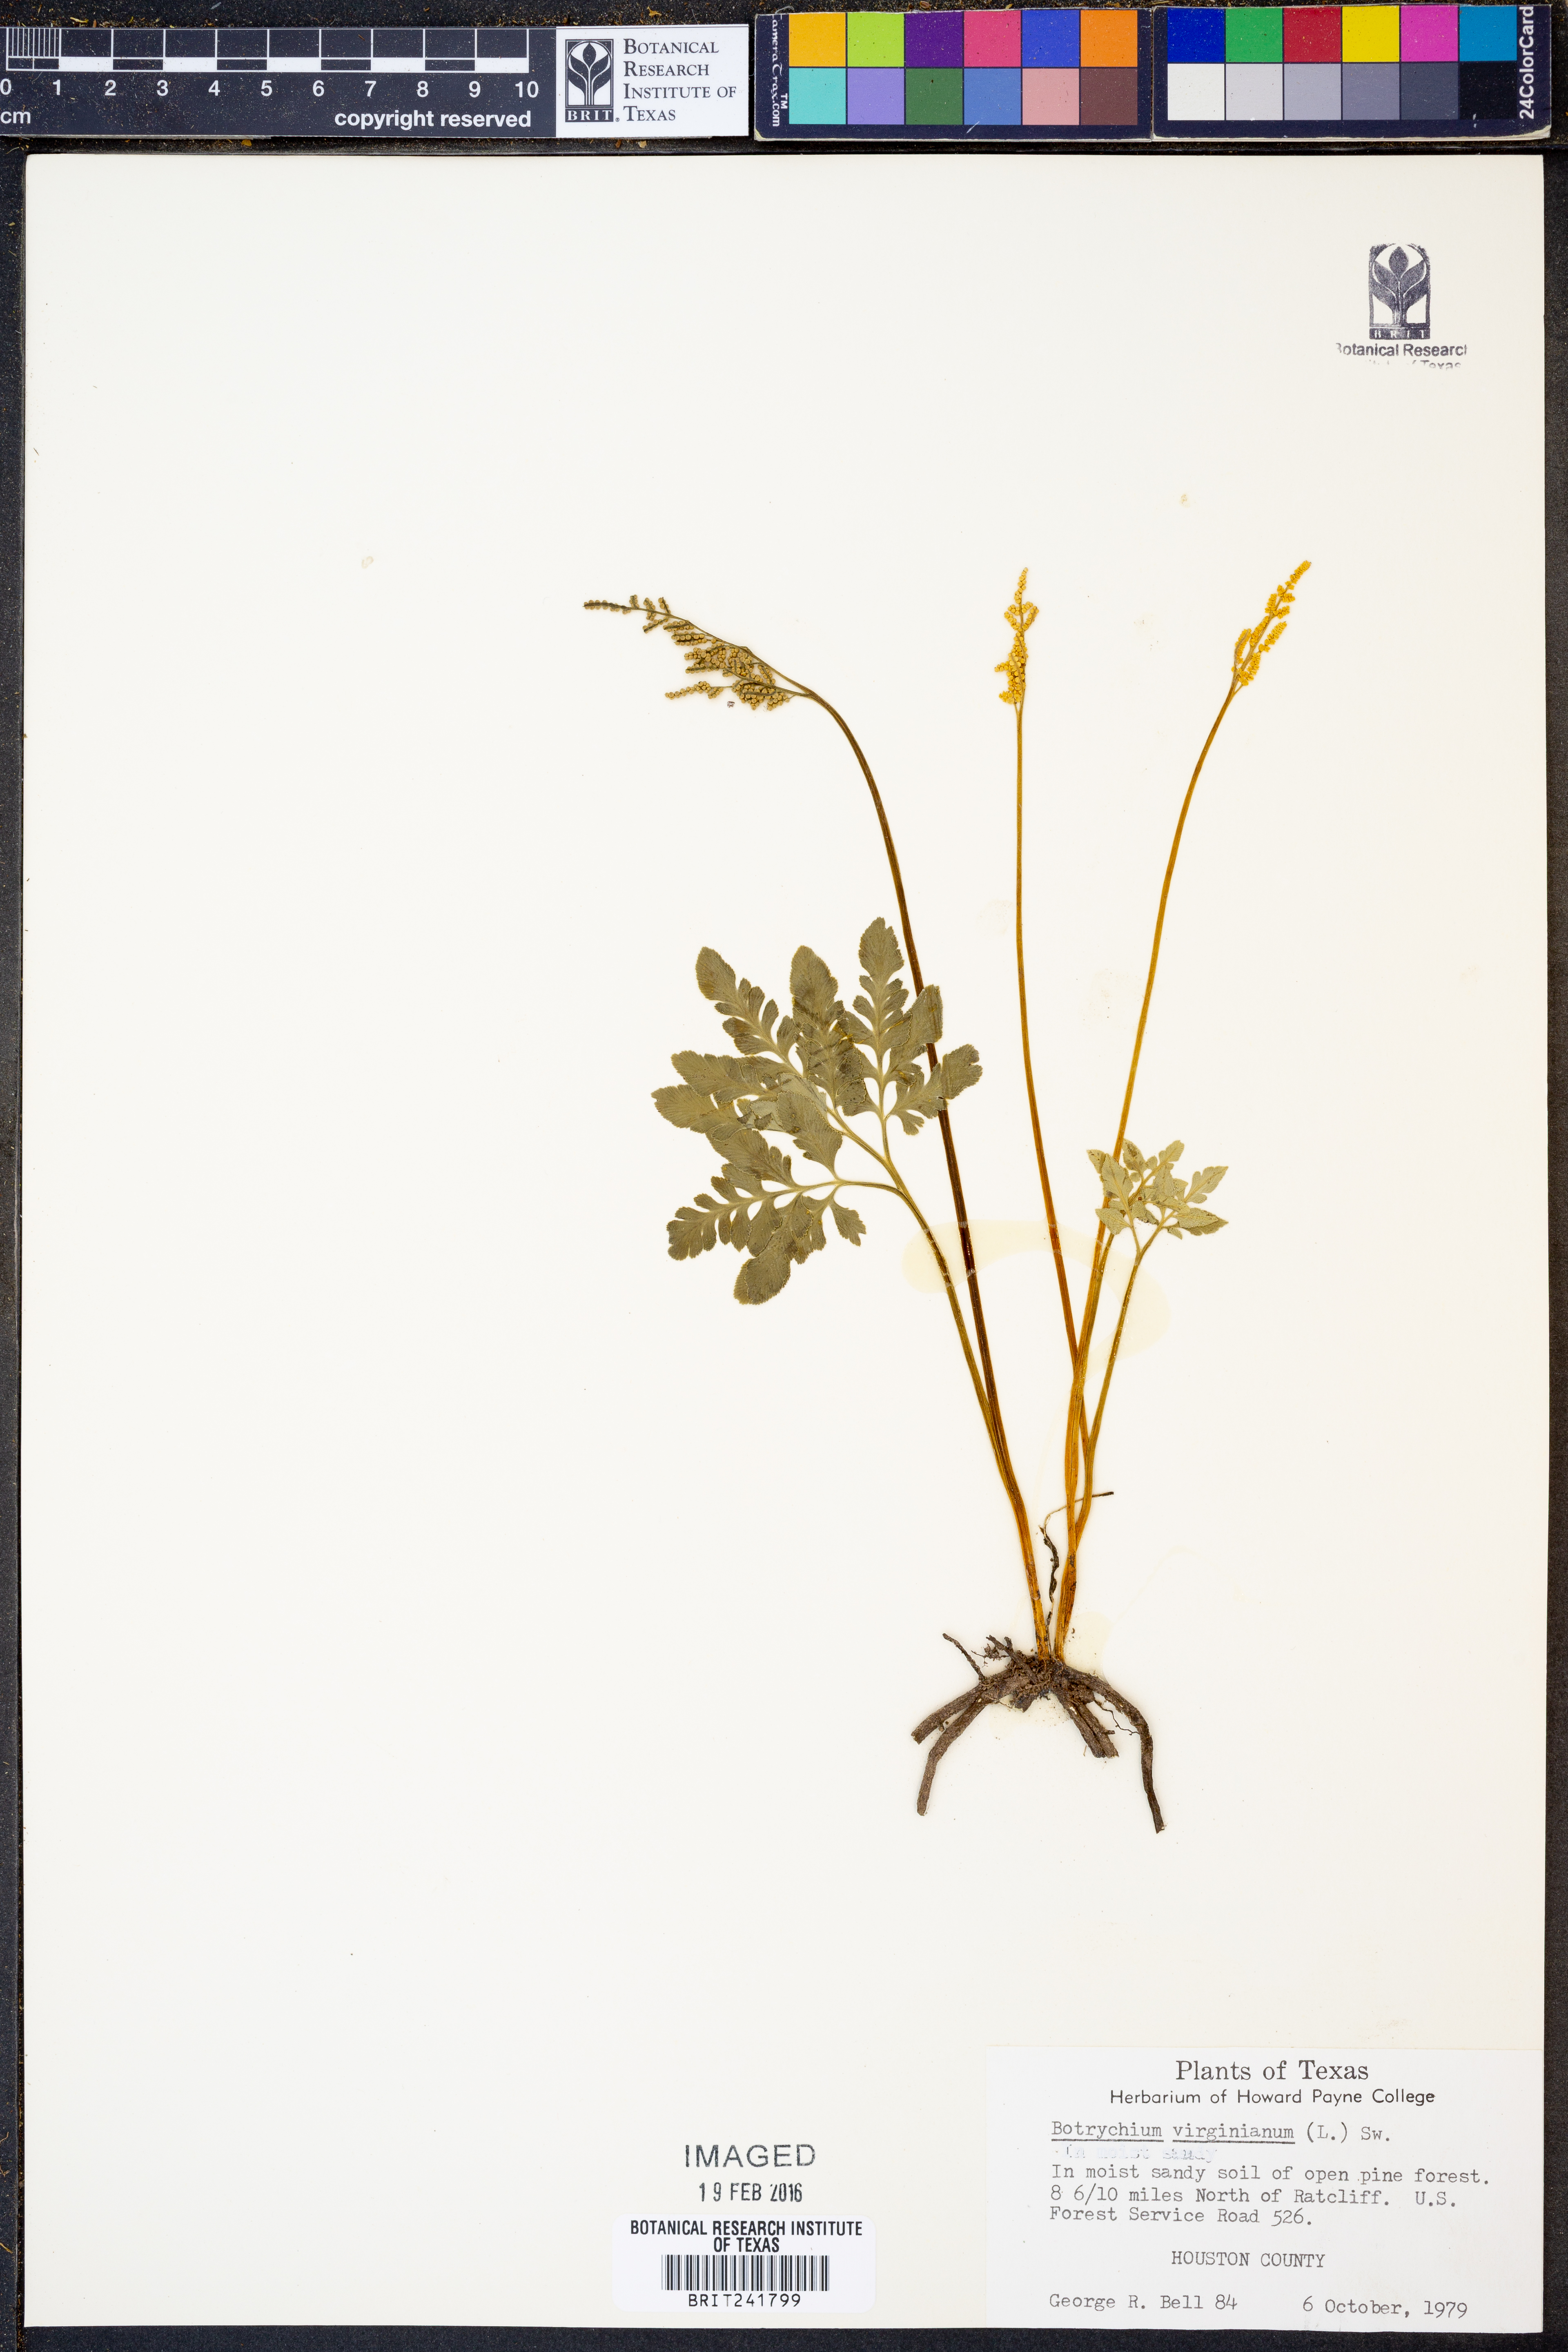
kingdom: Plantae
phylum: Tracheophyta
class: Polypodiopsida
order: Ophioglossales
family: Ophioglossaceae
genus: Botrypus
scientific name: Botrypus virginianus
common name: Common grapefern
